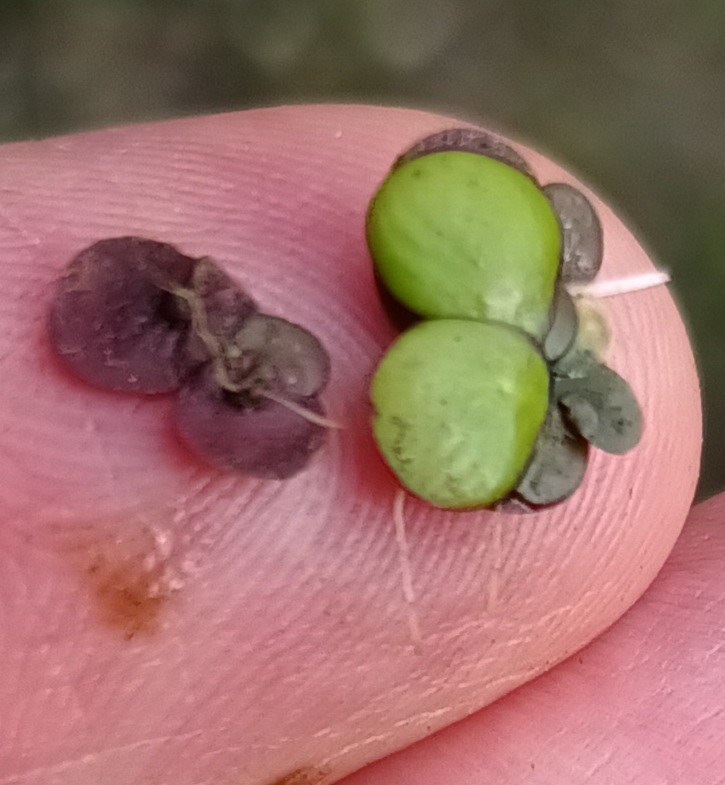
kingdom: Plantae
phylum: Tracheophyta
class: Liliopsida
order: Alismatales
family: Araceae
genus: Spirodela
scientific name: Spirodela polyrhiza
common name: Stor andemad
